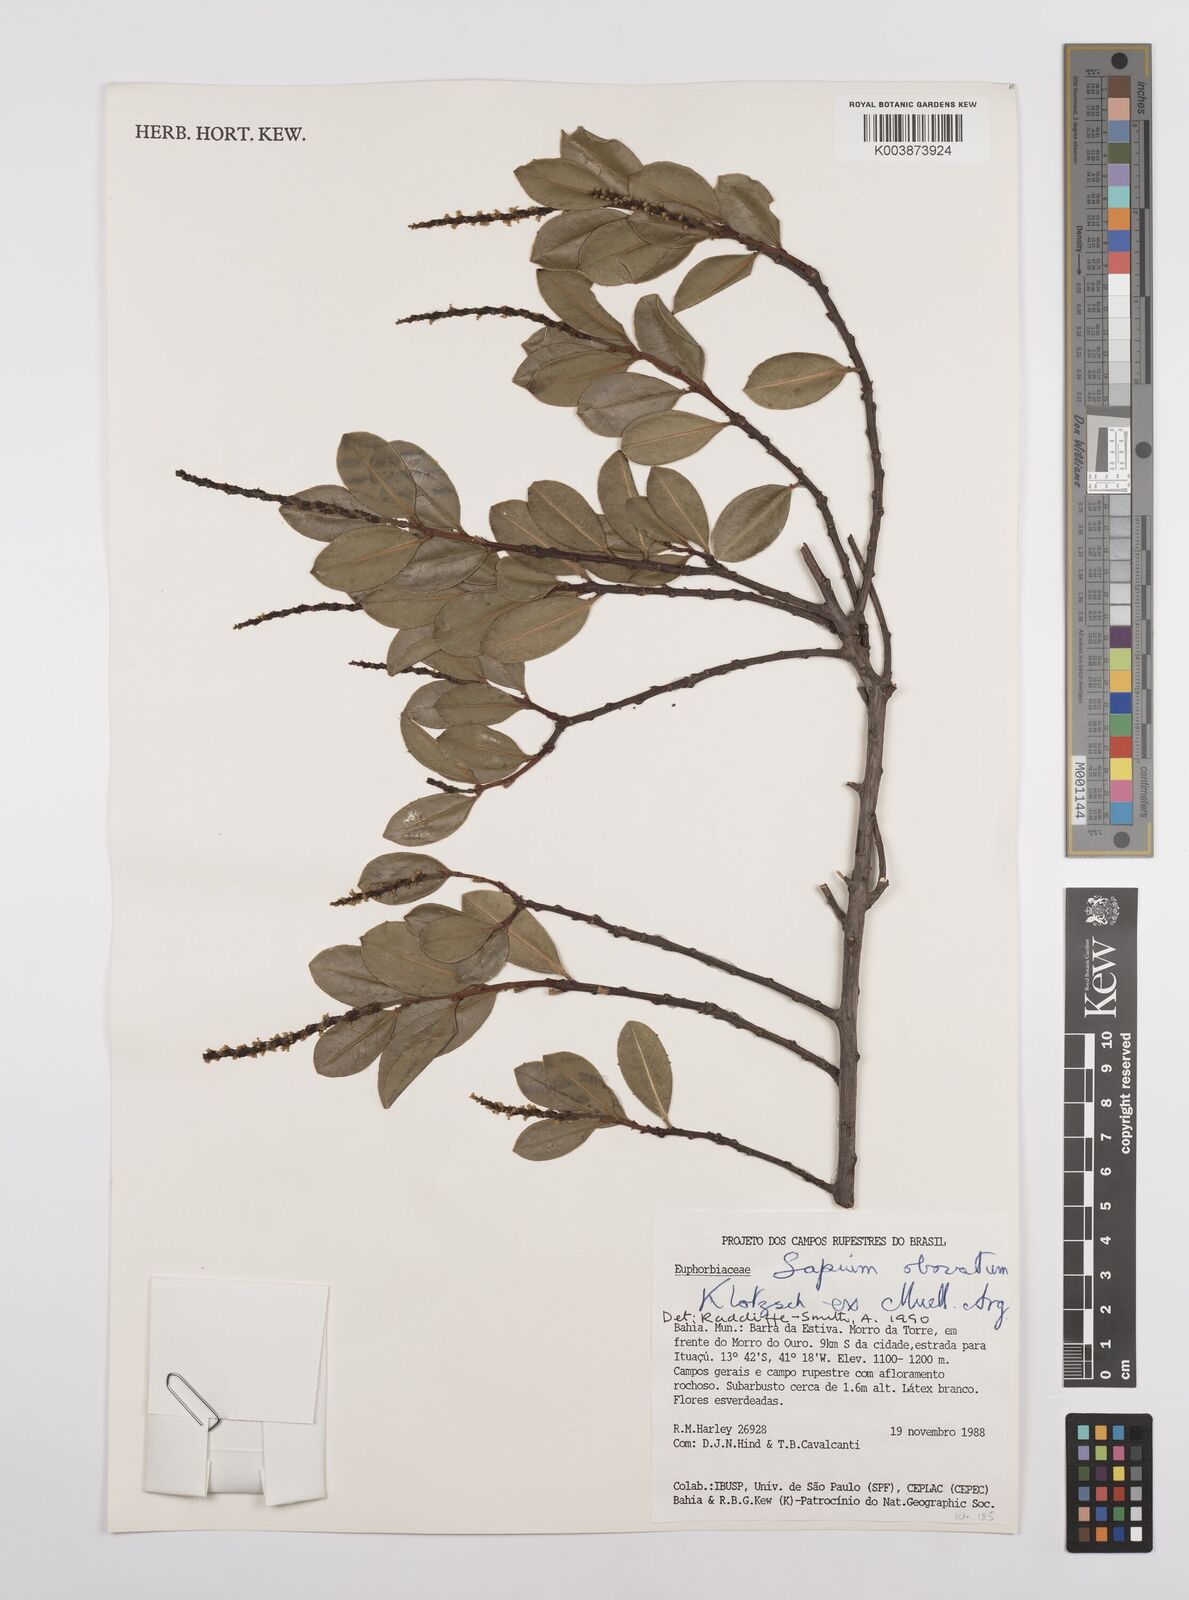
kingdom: Plantae
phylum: Tracheophyta
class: Magnoliopsida
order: Malpighiales
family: Euphorbiaceae
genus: Sapium
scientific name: Sapium obovatum
